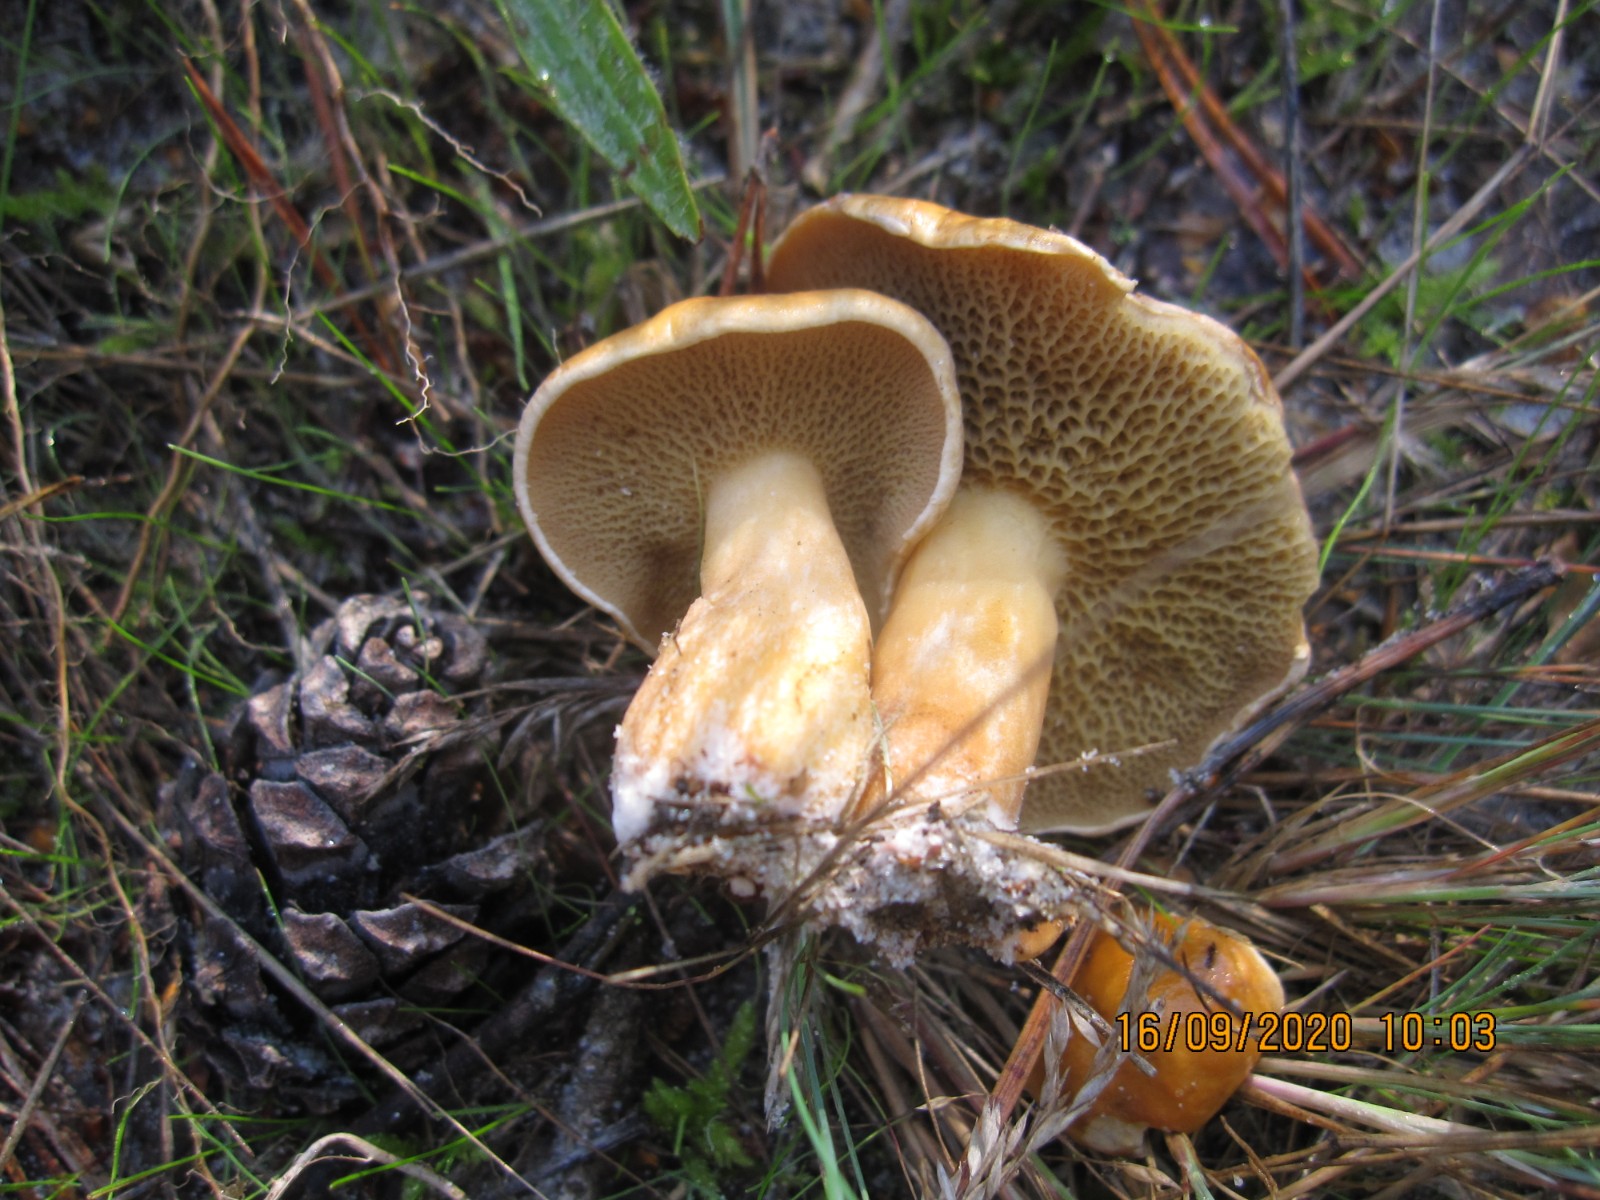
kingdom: Fungi
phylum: Basidiomycota
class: Agaricomycetes
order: Boletales
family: Suillaceae
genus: Suillus
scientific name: Suillus bovinus
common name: grovporet slimrørhat
